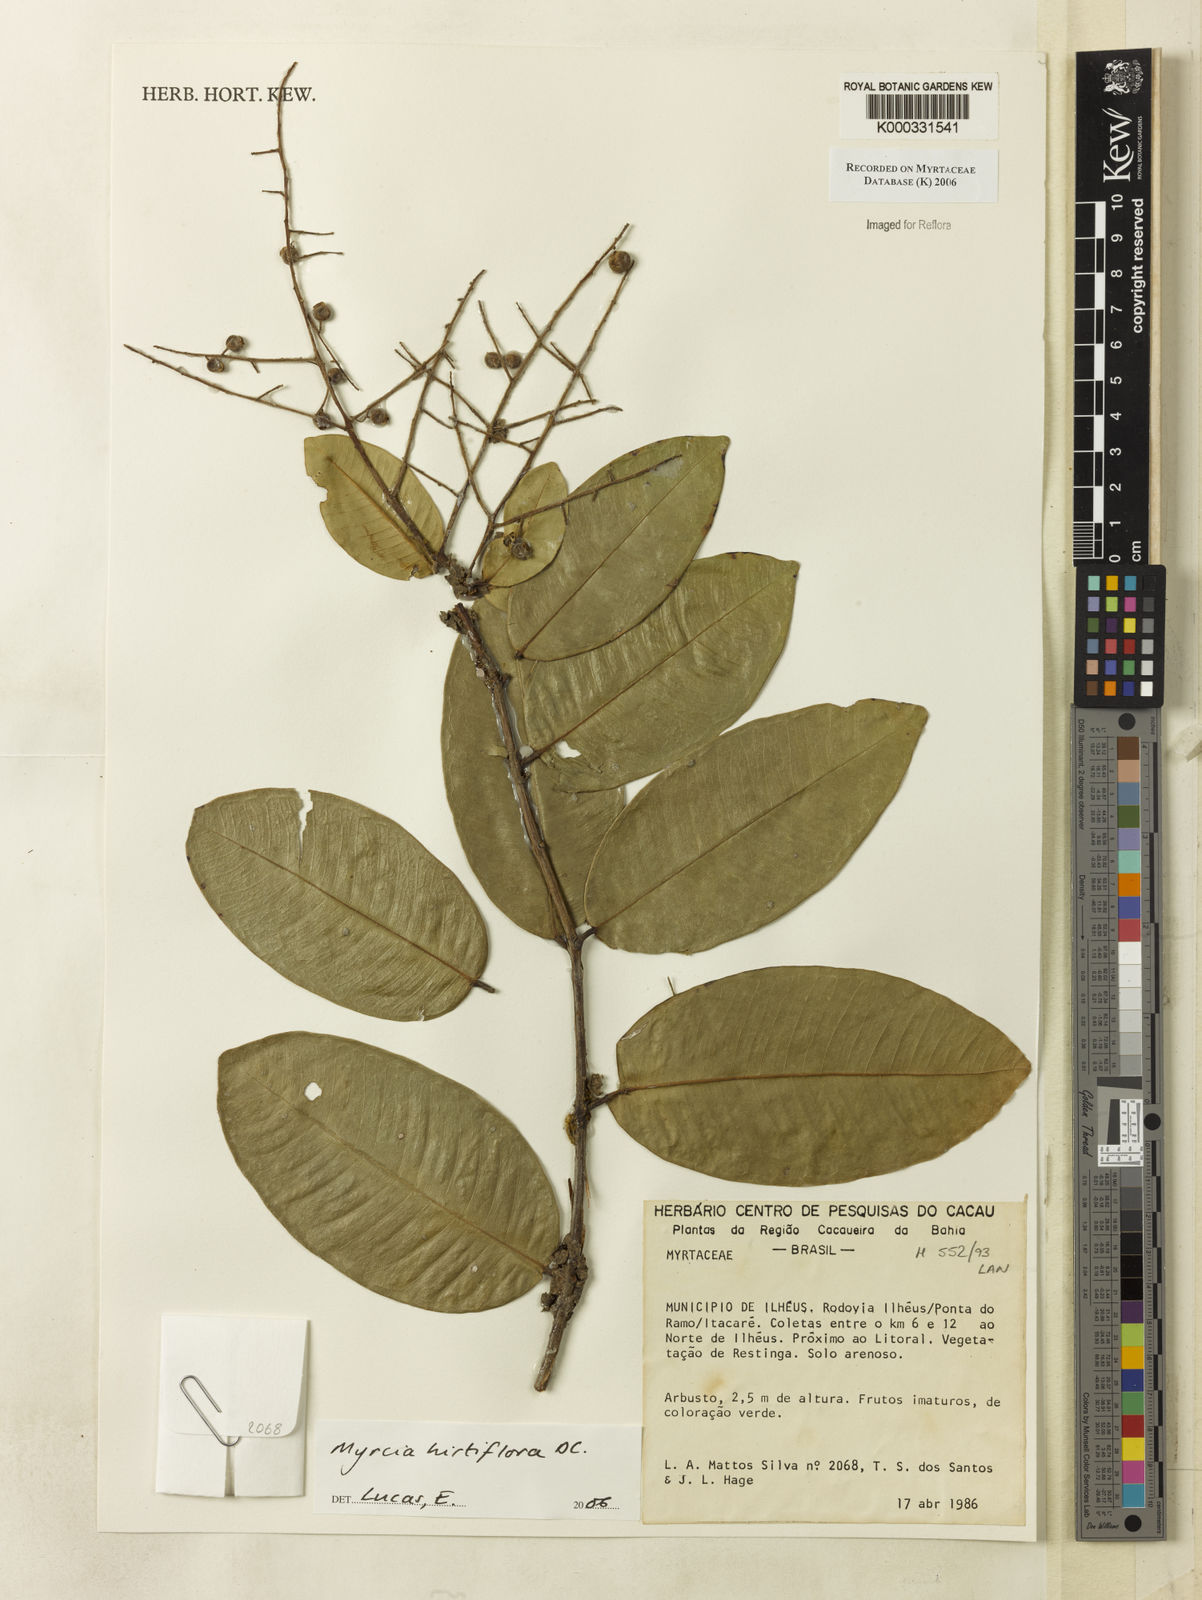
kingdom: Plantae
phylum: Tracheophyta
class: Magnoliopsida
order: Myrtales
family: Myrtaceae
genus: Myrcia
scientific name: Myrcia tomentosa
